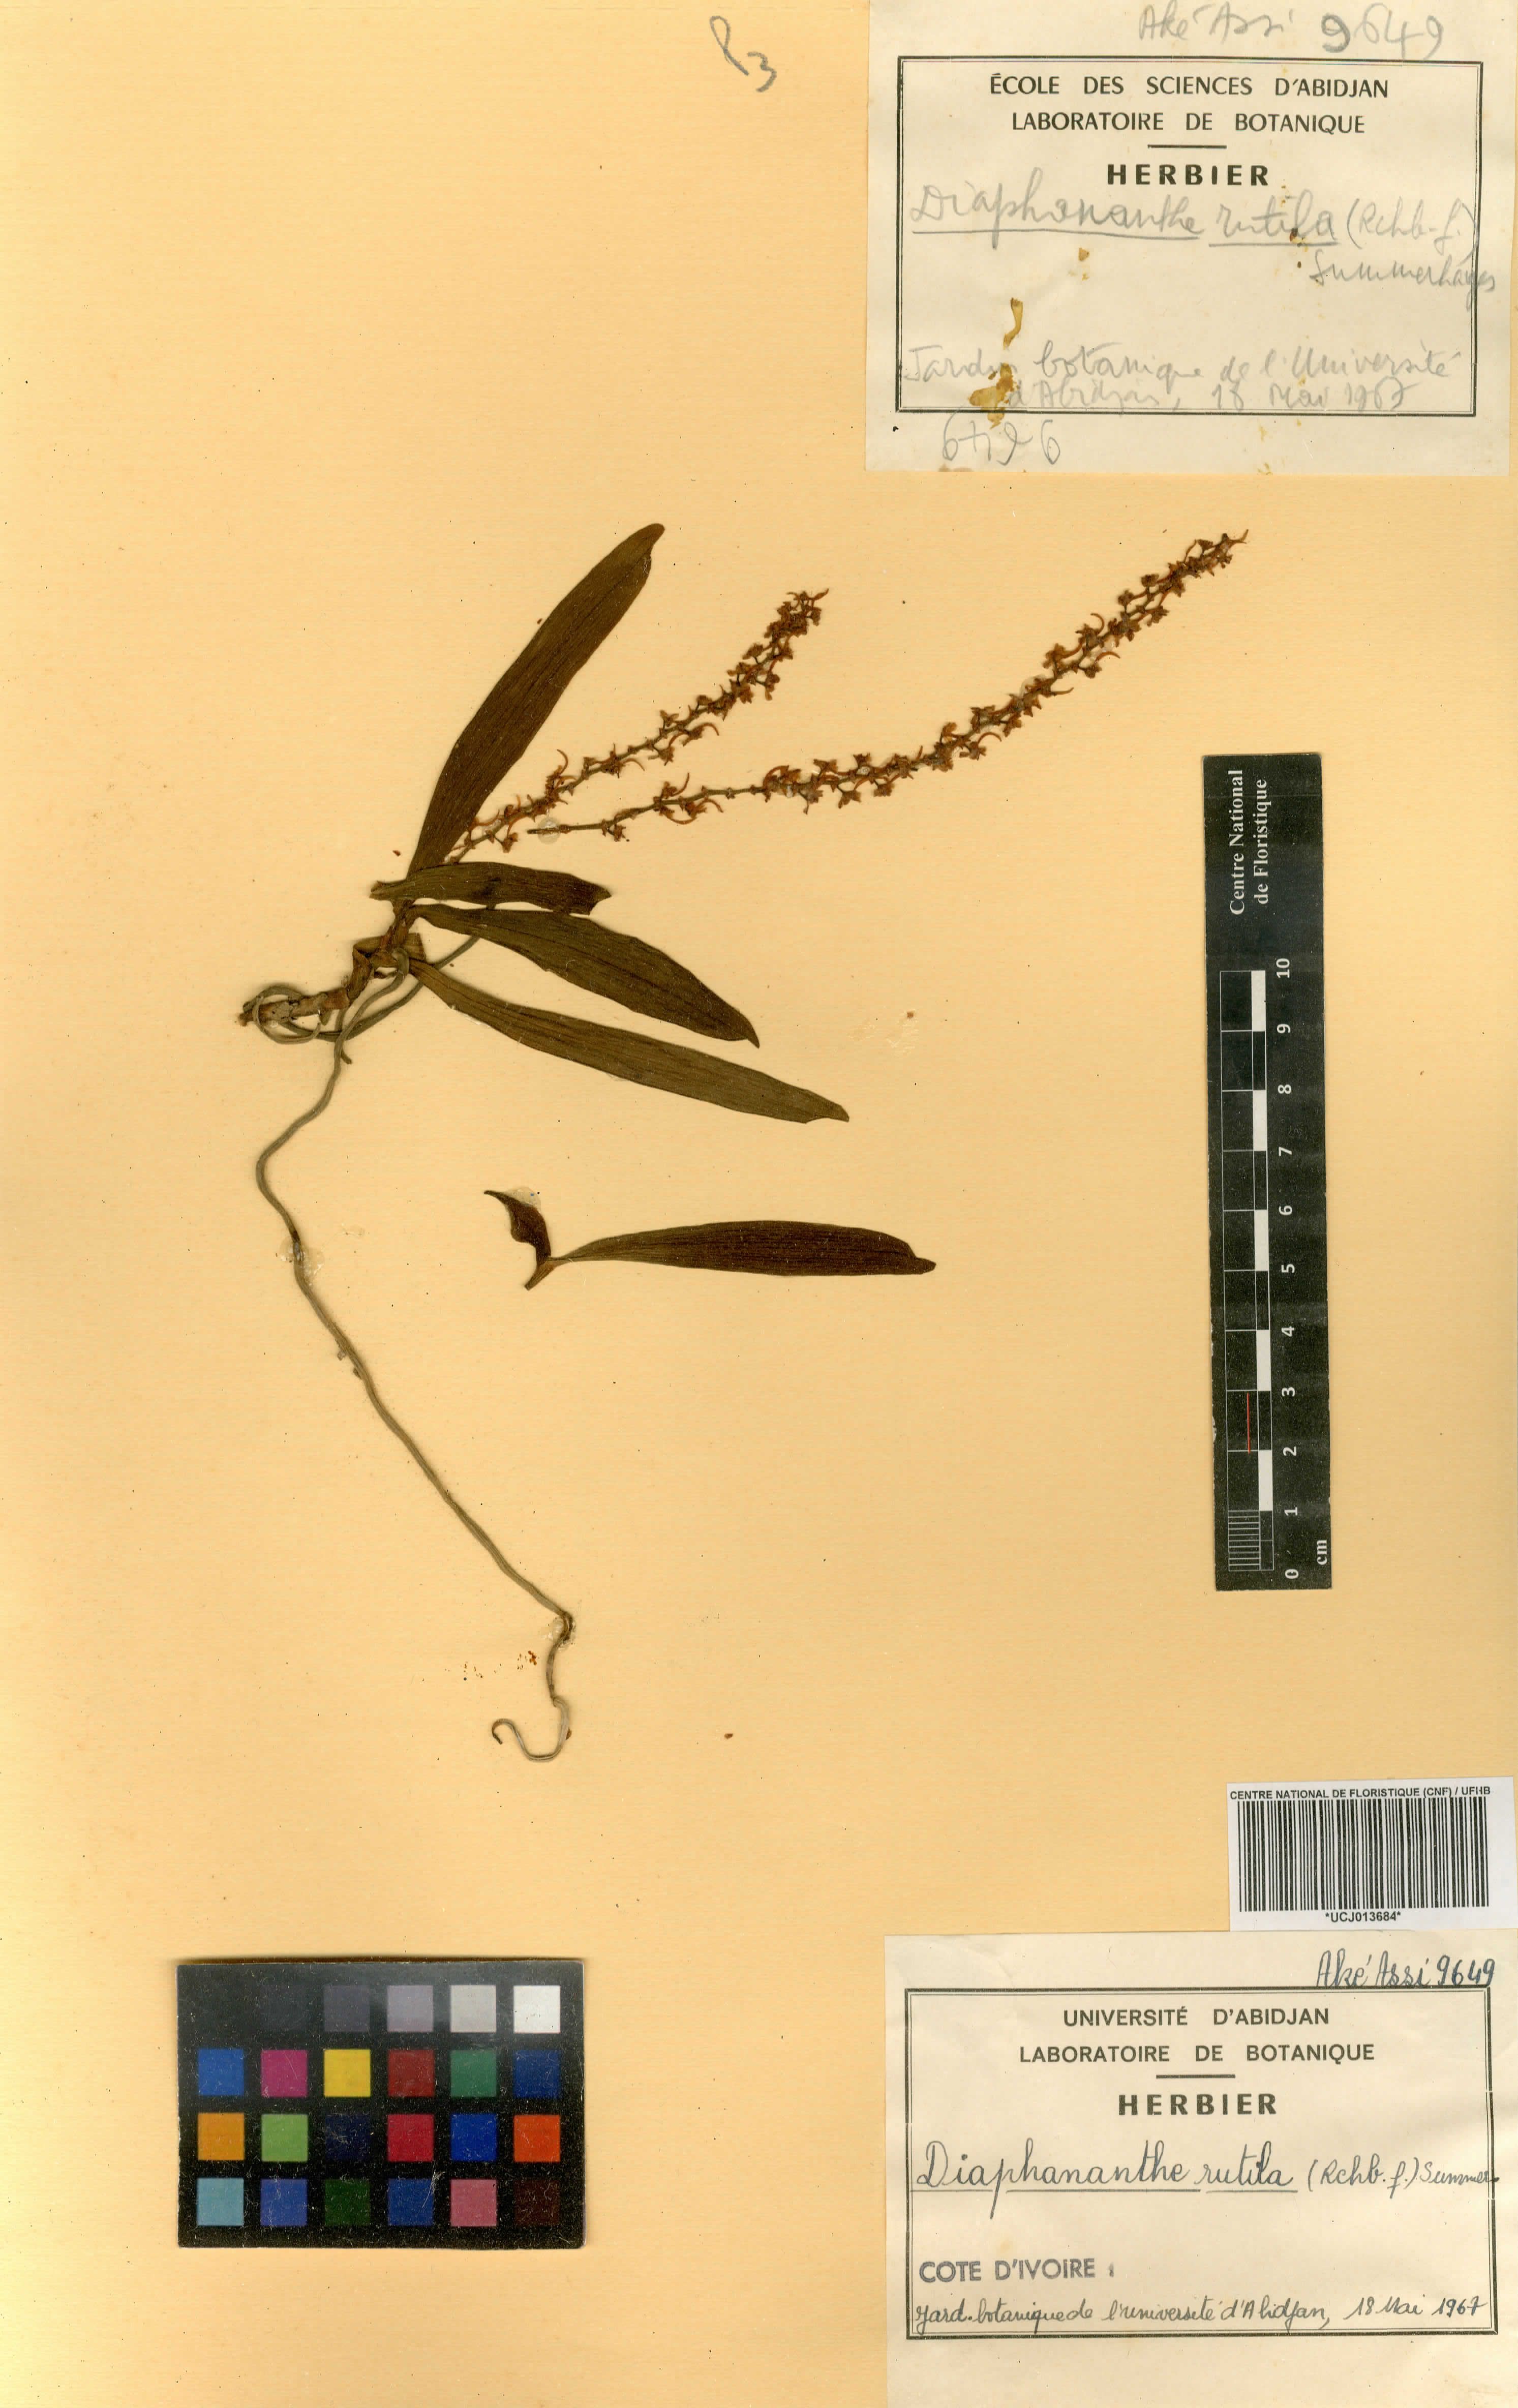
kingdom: Plantae
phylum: Tracheophyta
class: Liliopsida
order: Asparagales
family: Orchidaceae
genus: Rhipidoglossum
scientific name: Rhipidoglossum rutilum
